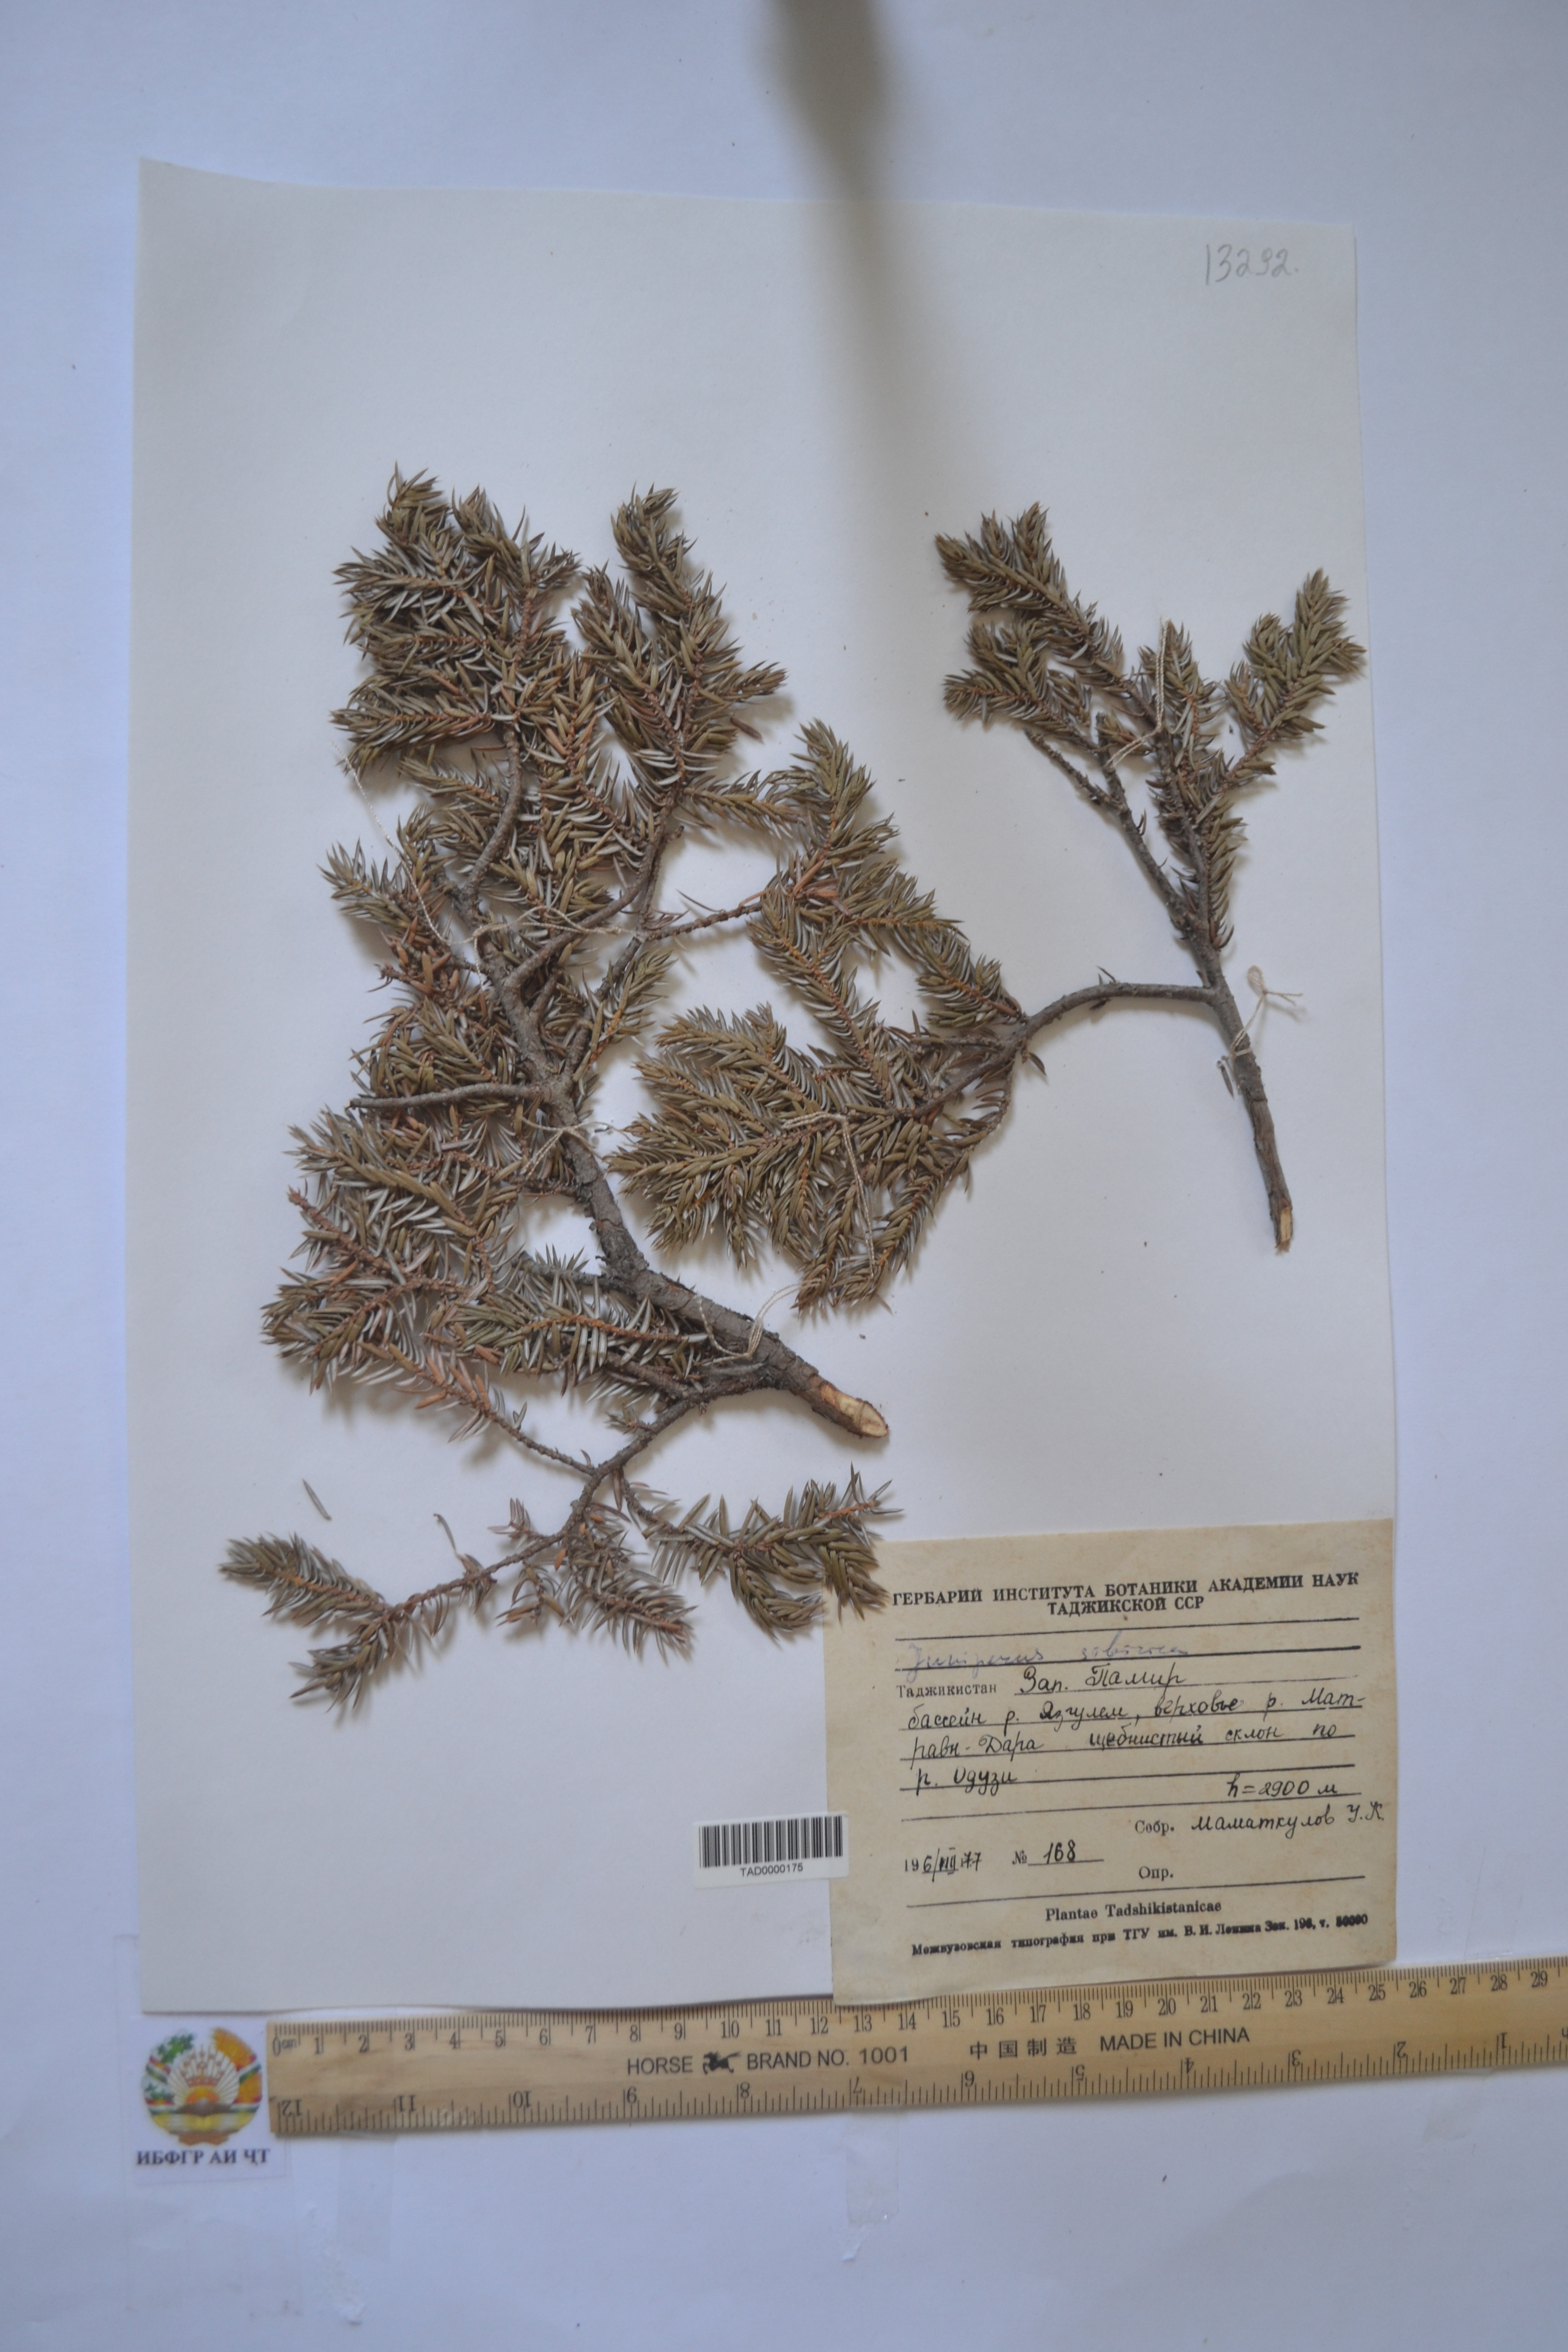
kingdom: Plantae
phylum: Tracheophyta
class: Pinopsida
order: Pinales
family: Cupressaceae
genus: Juniperus
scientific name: Juniperus communis
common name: Common juniper
